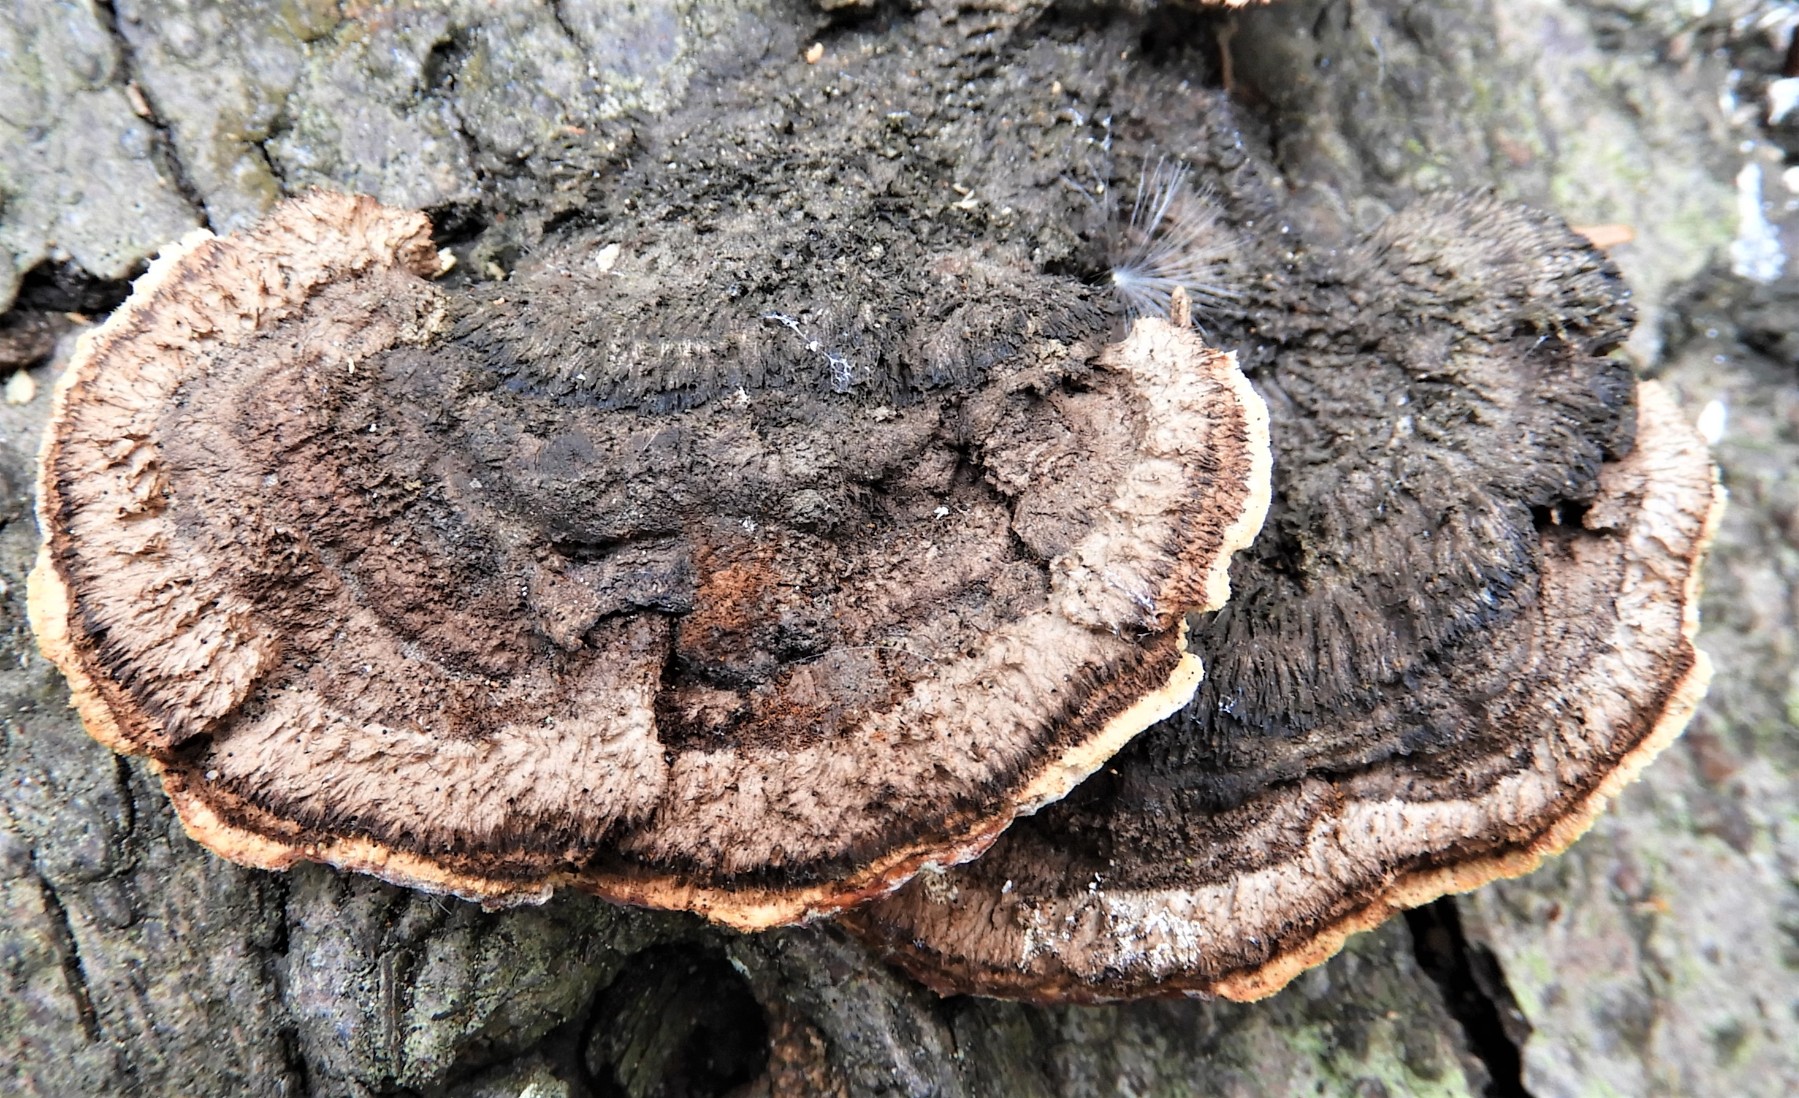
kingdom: Fungi
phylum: Basidiomycota
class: Agaricomycetes
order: Gloeophyllales
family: Gloeophyllaceae
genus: Gloeophyllum
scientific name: Gloeophyllum sepiarium
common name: fyrre-korkhat
